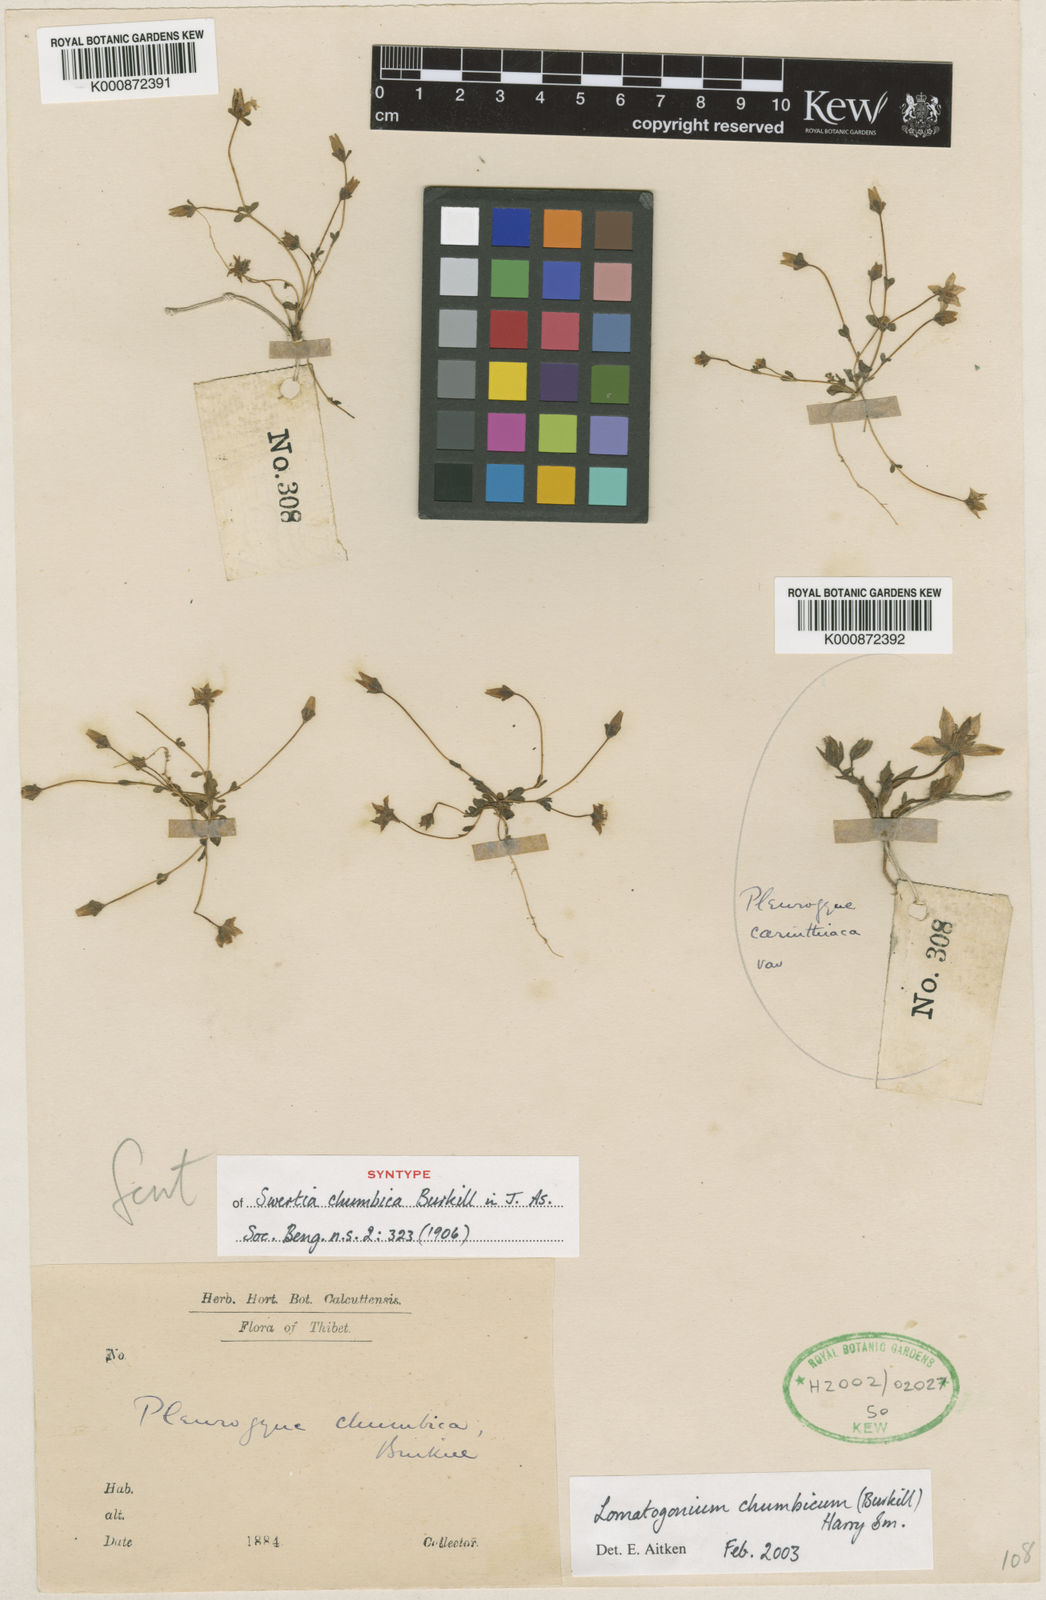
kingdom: Plantae
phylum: Tracheophyta
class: Magnoliopsida
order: Gentianales
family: Gentianaceae
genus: Lomatogonium
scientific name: Lomatogonium chumbicum
